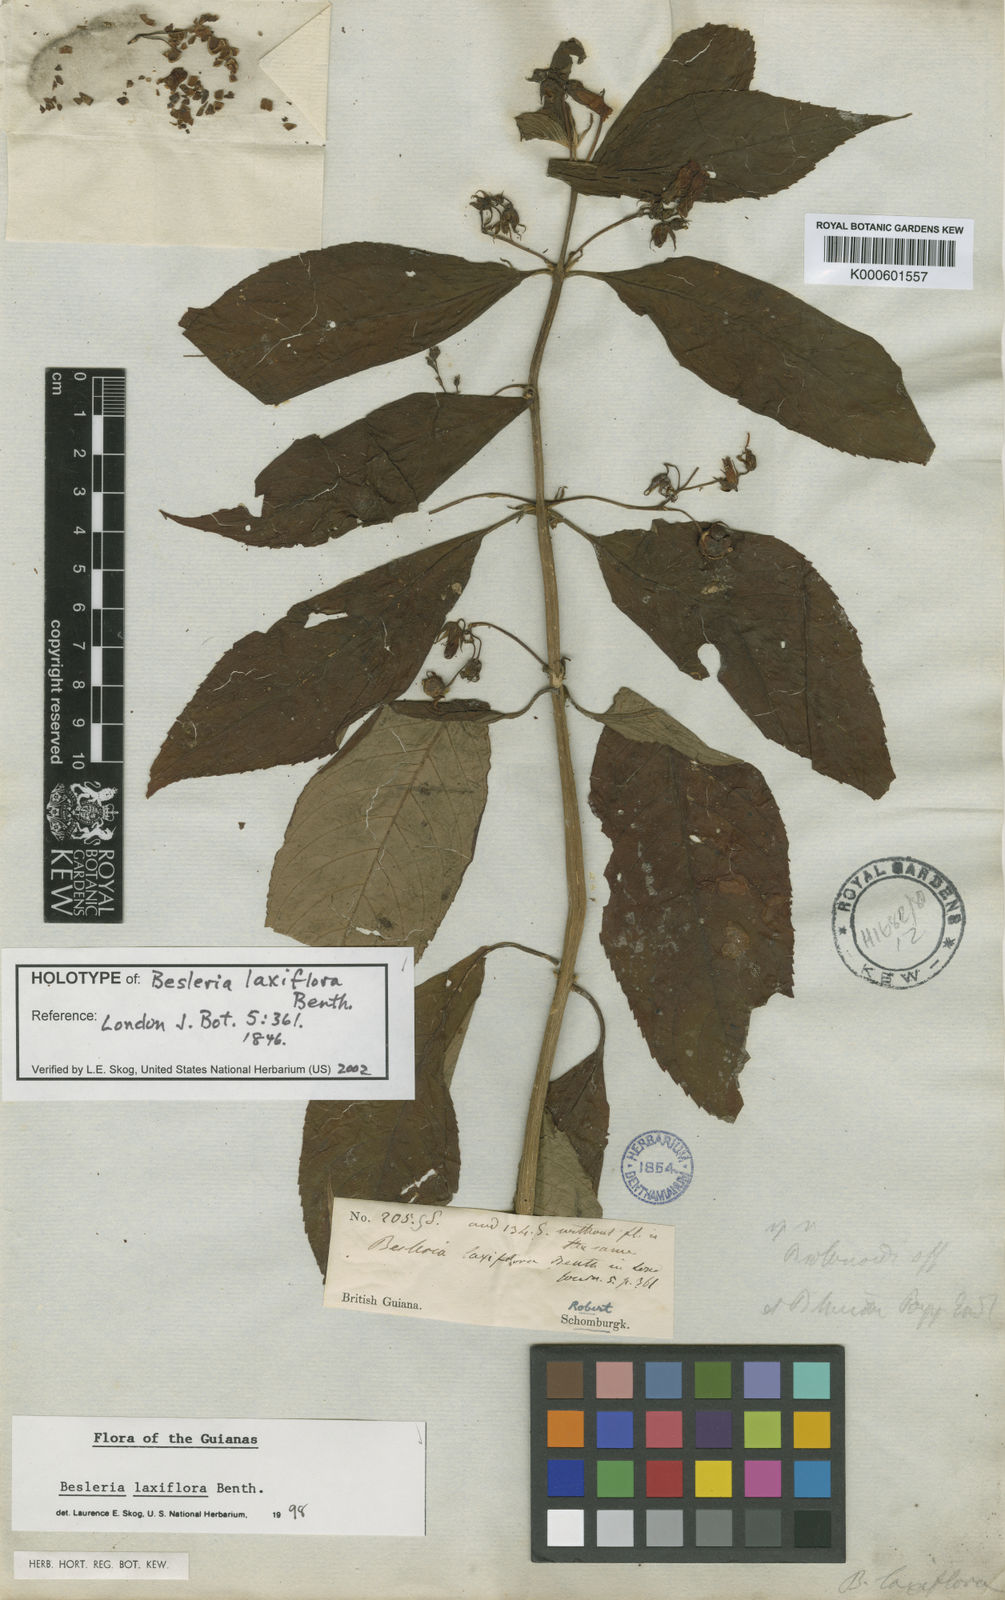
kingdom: Plantae
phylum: Tracheophyta
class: Magnoliopsida
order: Lamiales
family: Gesneriaceae
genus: Besleria
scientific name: Besleria laxiflora
